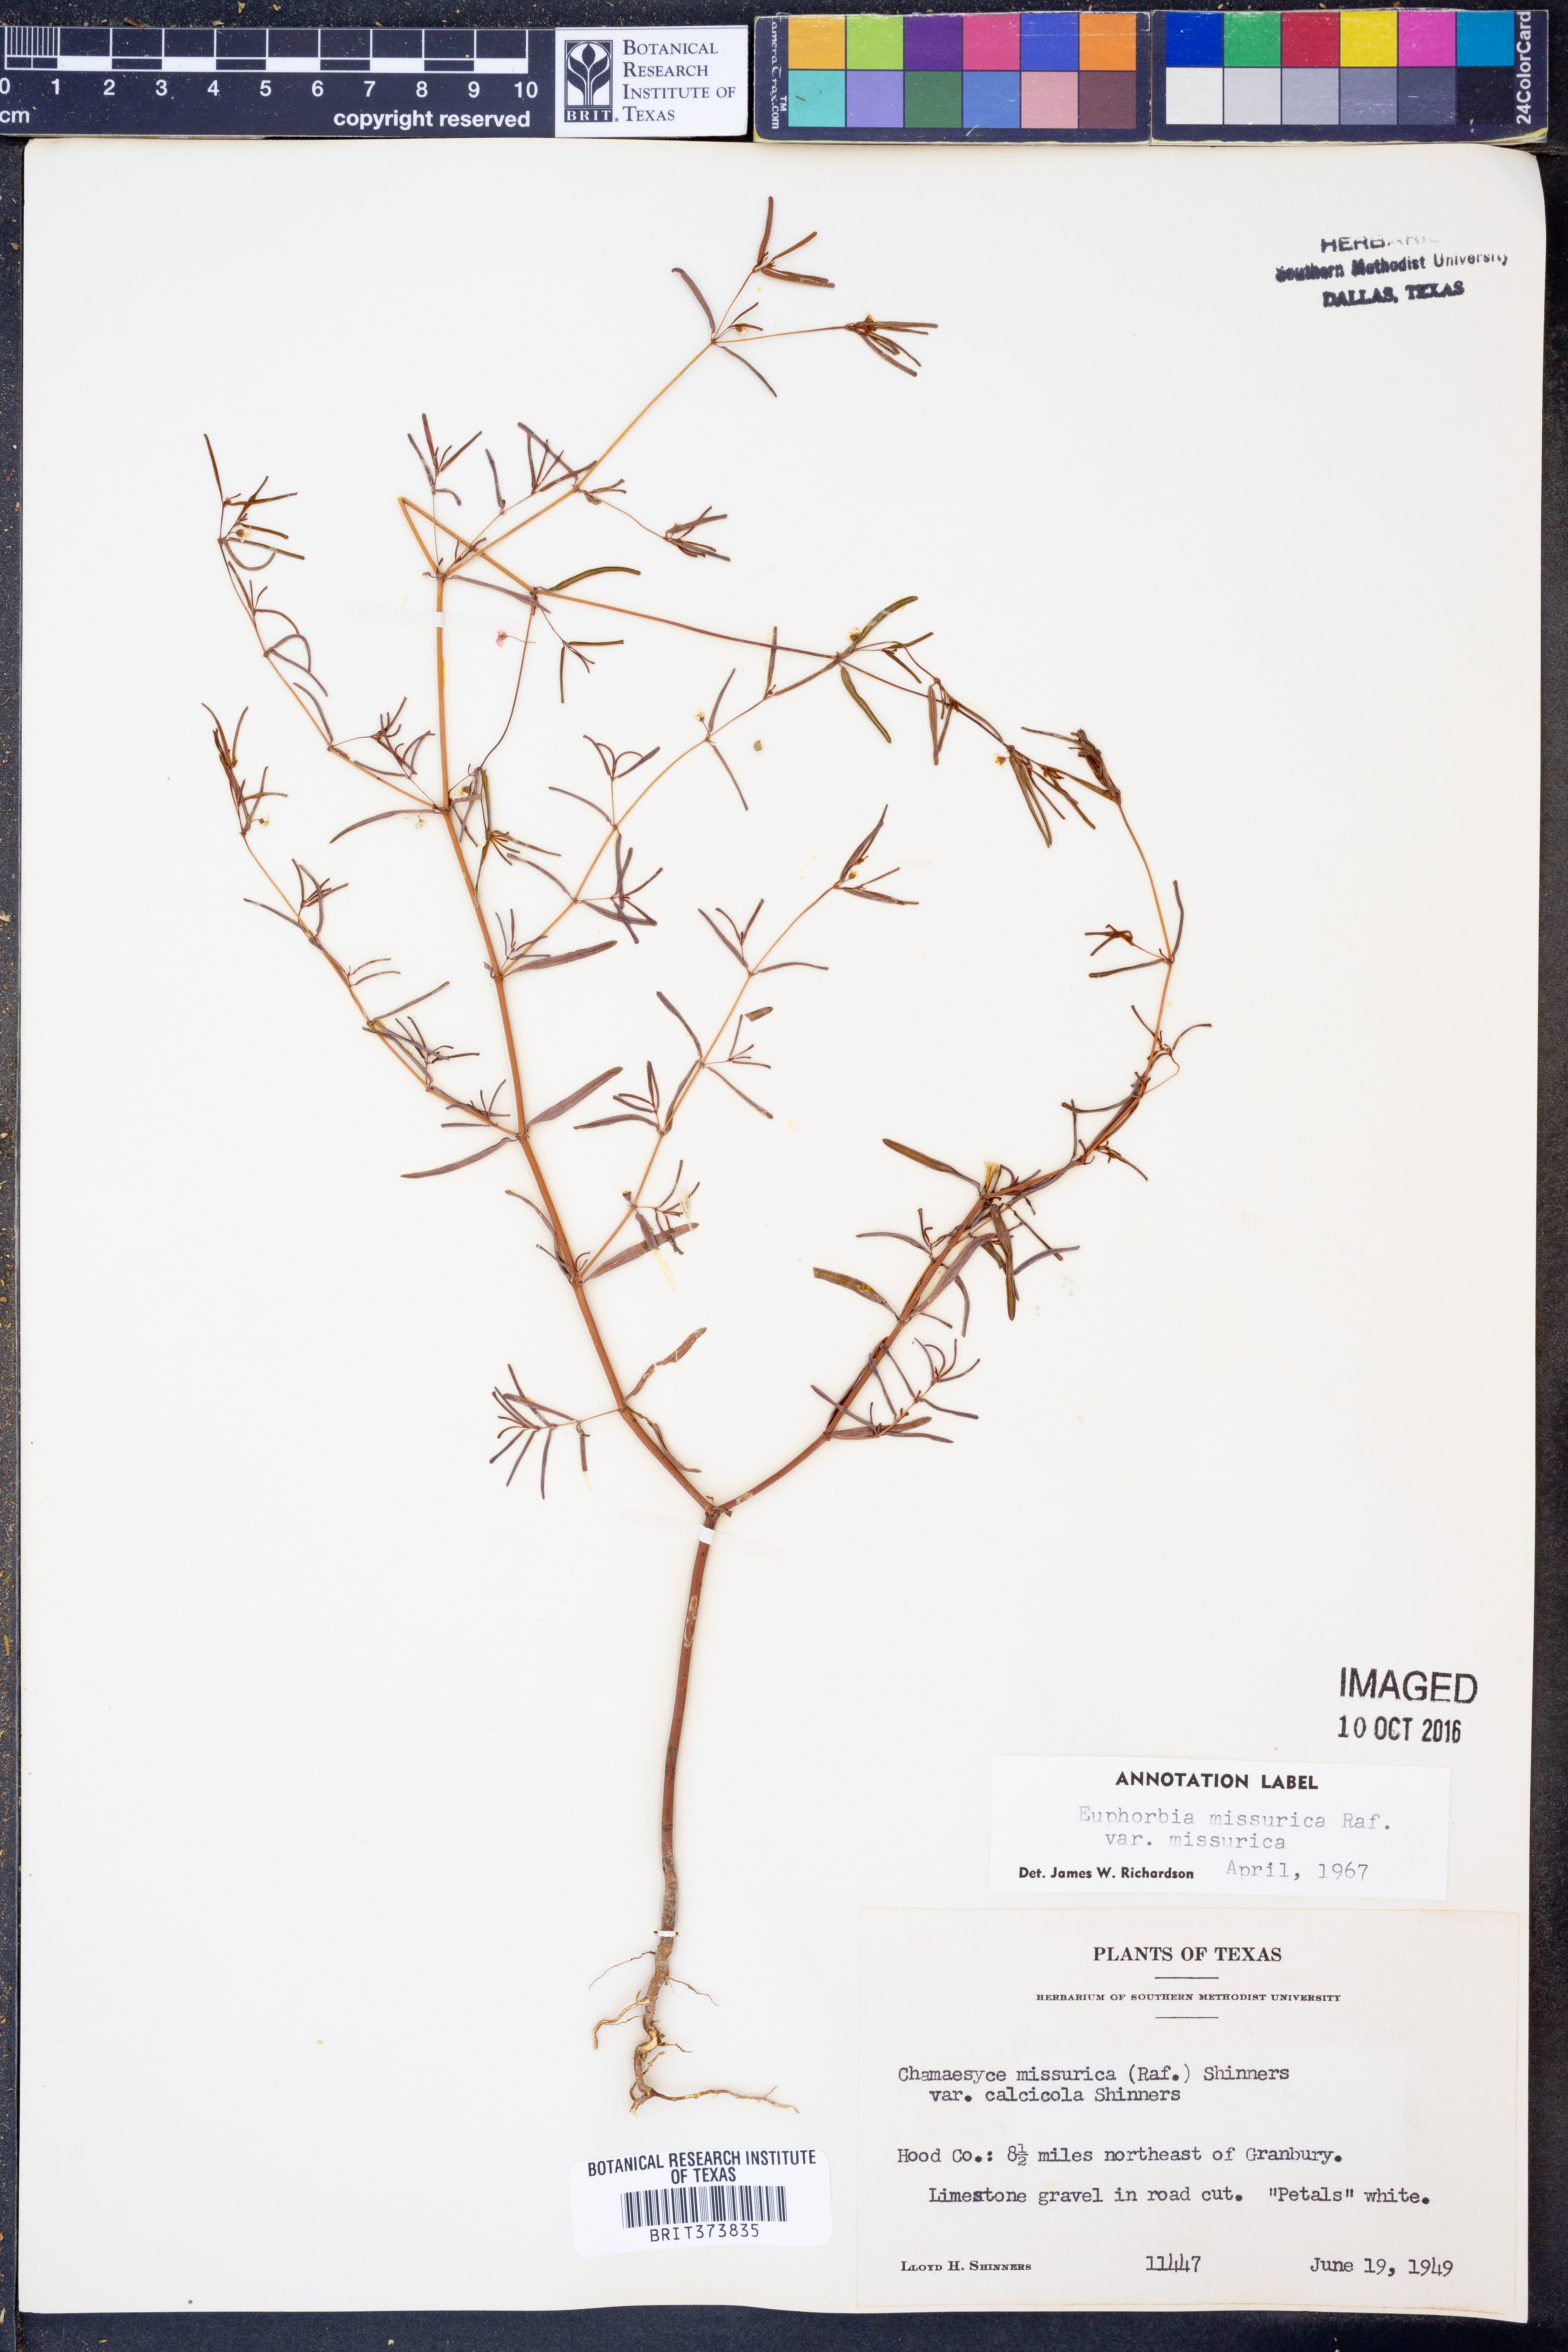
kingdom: Plantae
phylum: Tracheophyta
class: Magnoliopsida
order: Malpighiales
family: Euphorbiaceae
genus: Euphorbia
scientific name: Euphorbia missurica
